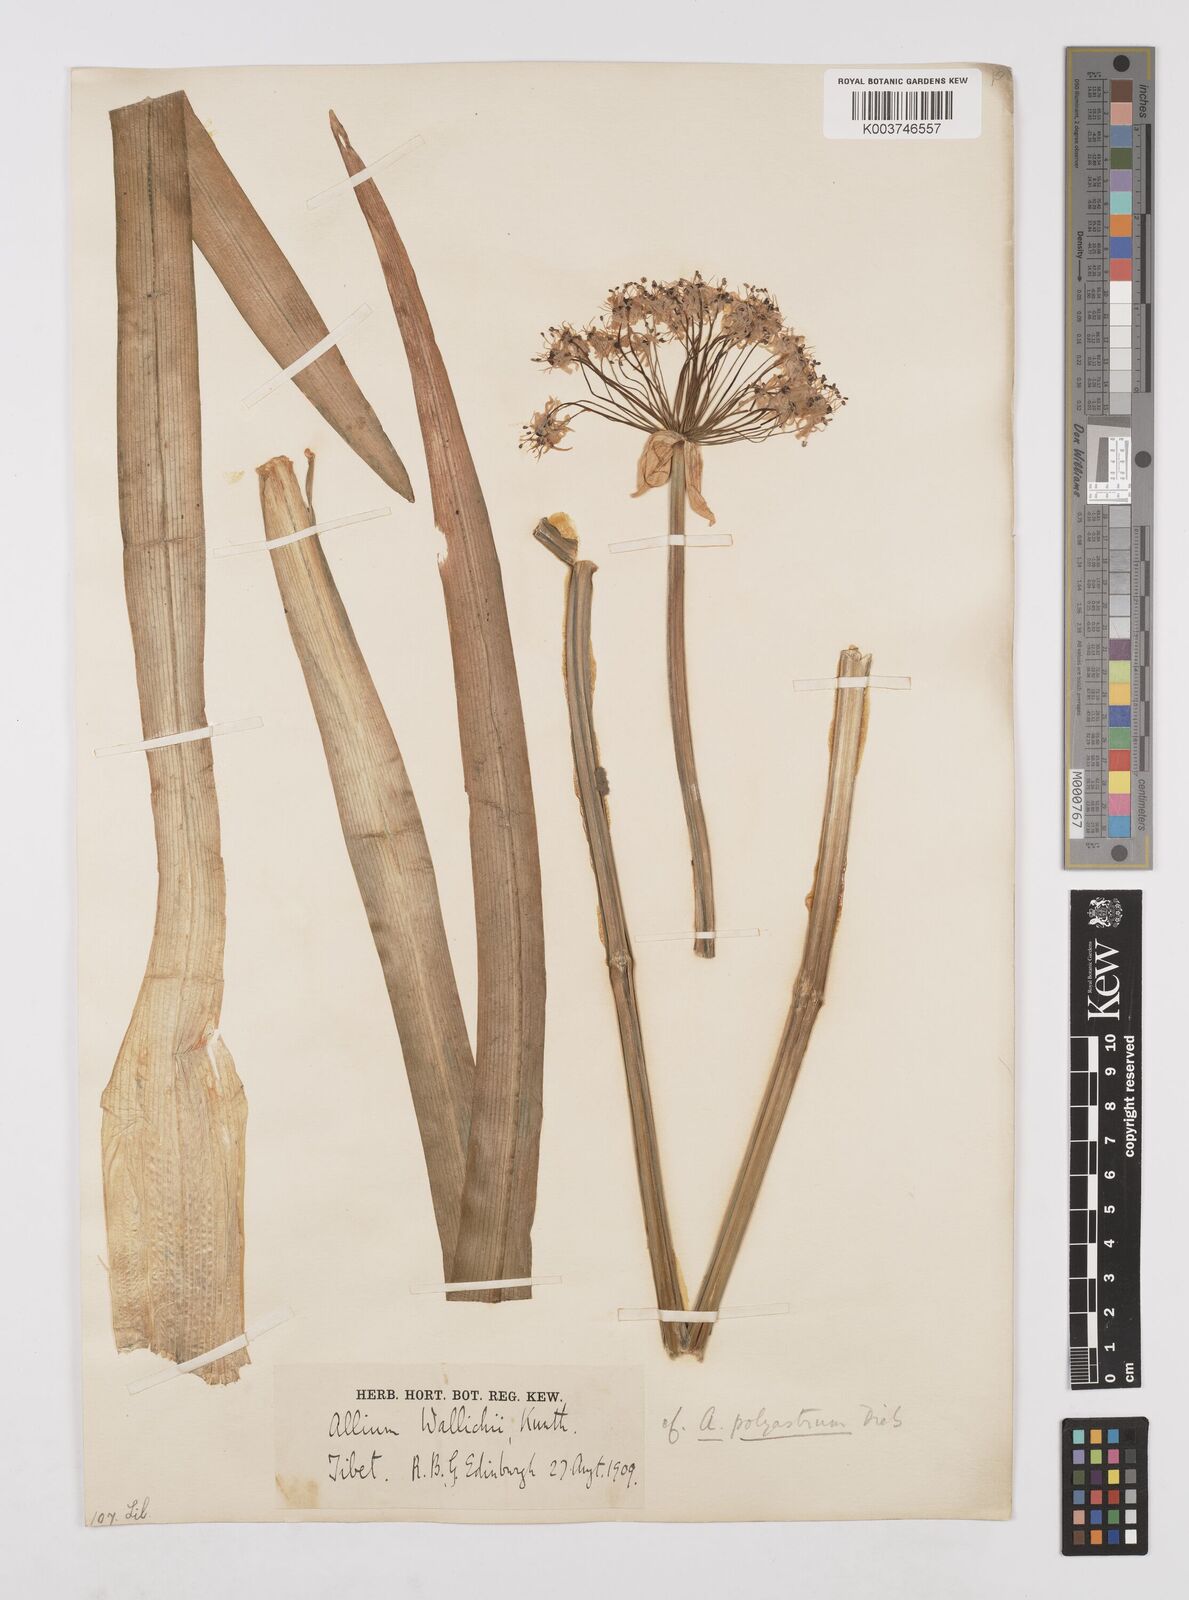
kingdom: Plantae
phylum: Tracheophyta
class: Liliopsida
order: Asparagales
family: Amaryllidaceae
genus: Allium
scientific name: Allium wallichii
